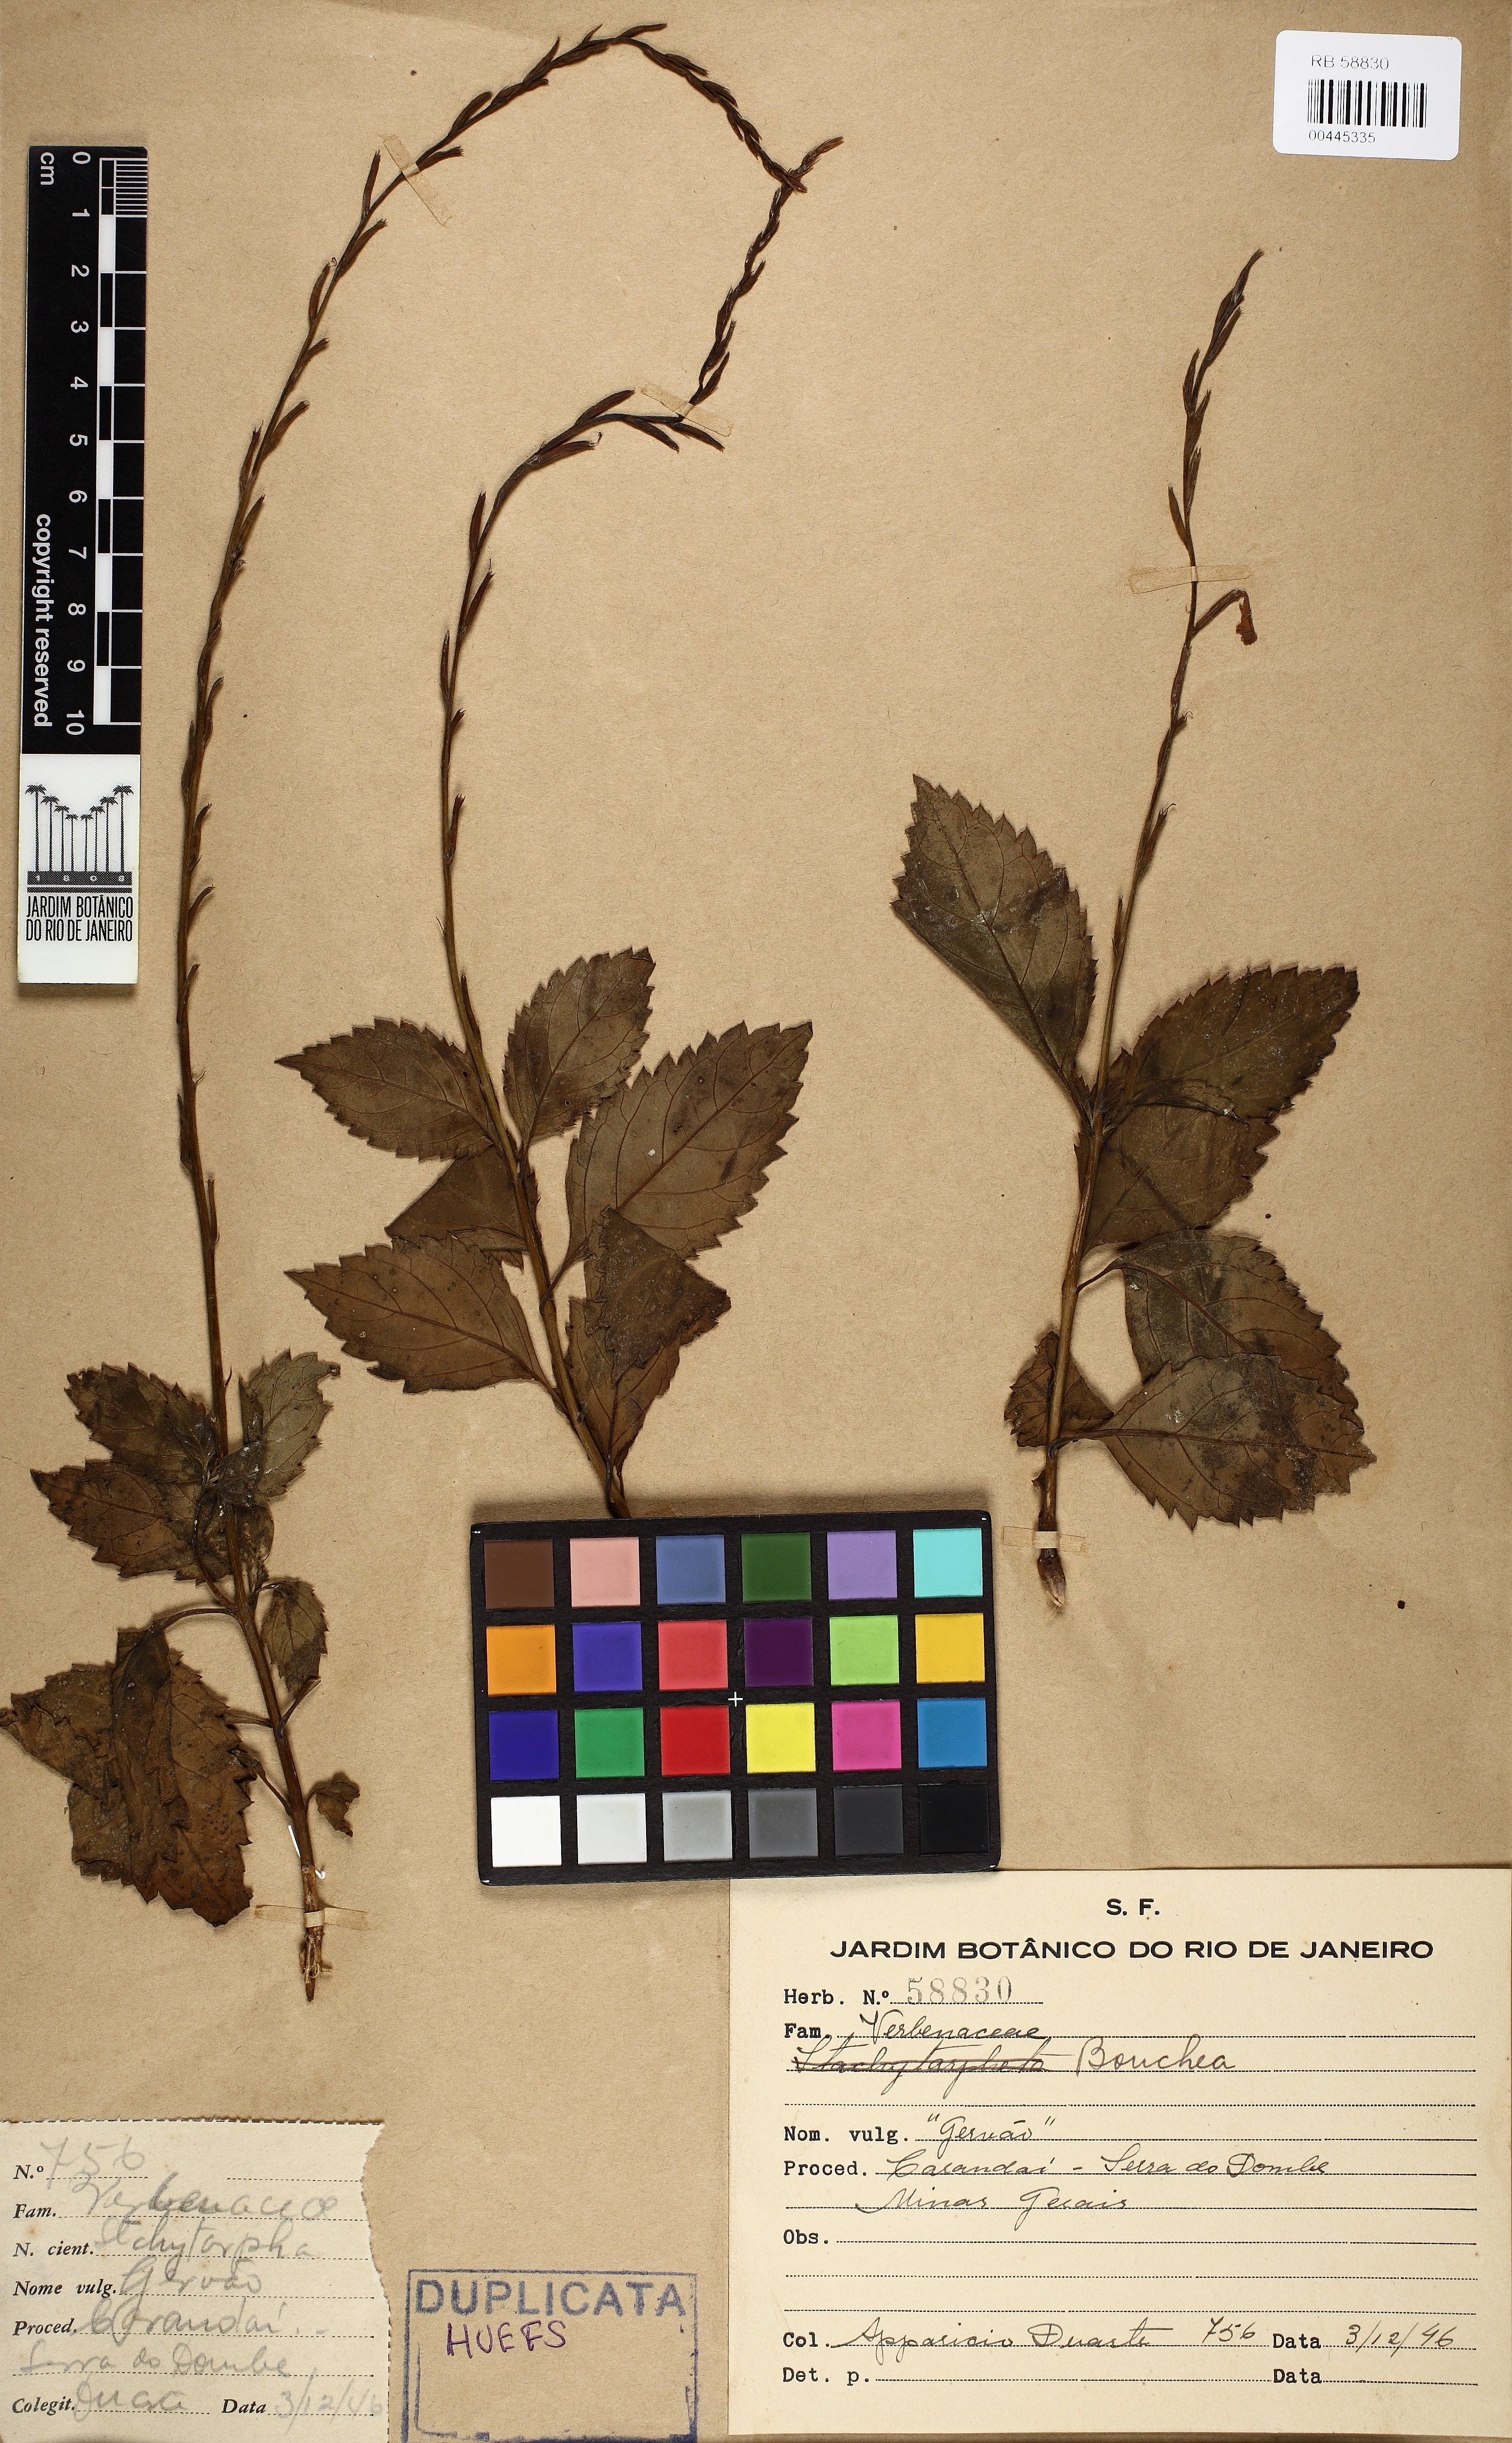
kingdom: Plantae
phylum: Tracheophyta
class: Magnoliopsida
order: Lamiales
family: Verbenaceae
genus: Bouchea
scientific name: Bouchea
